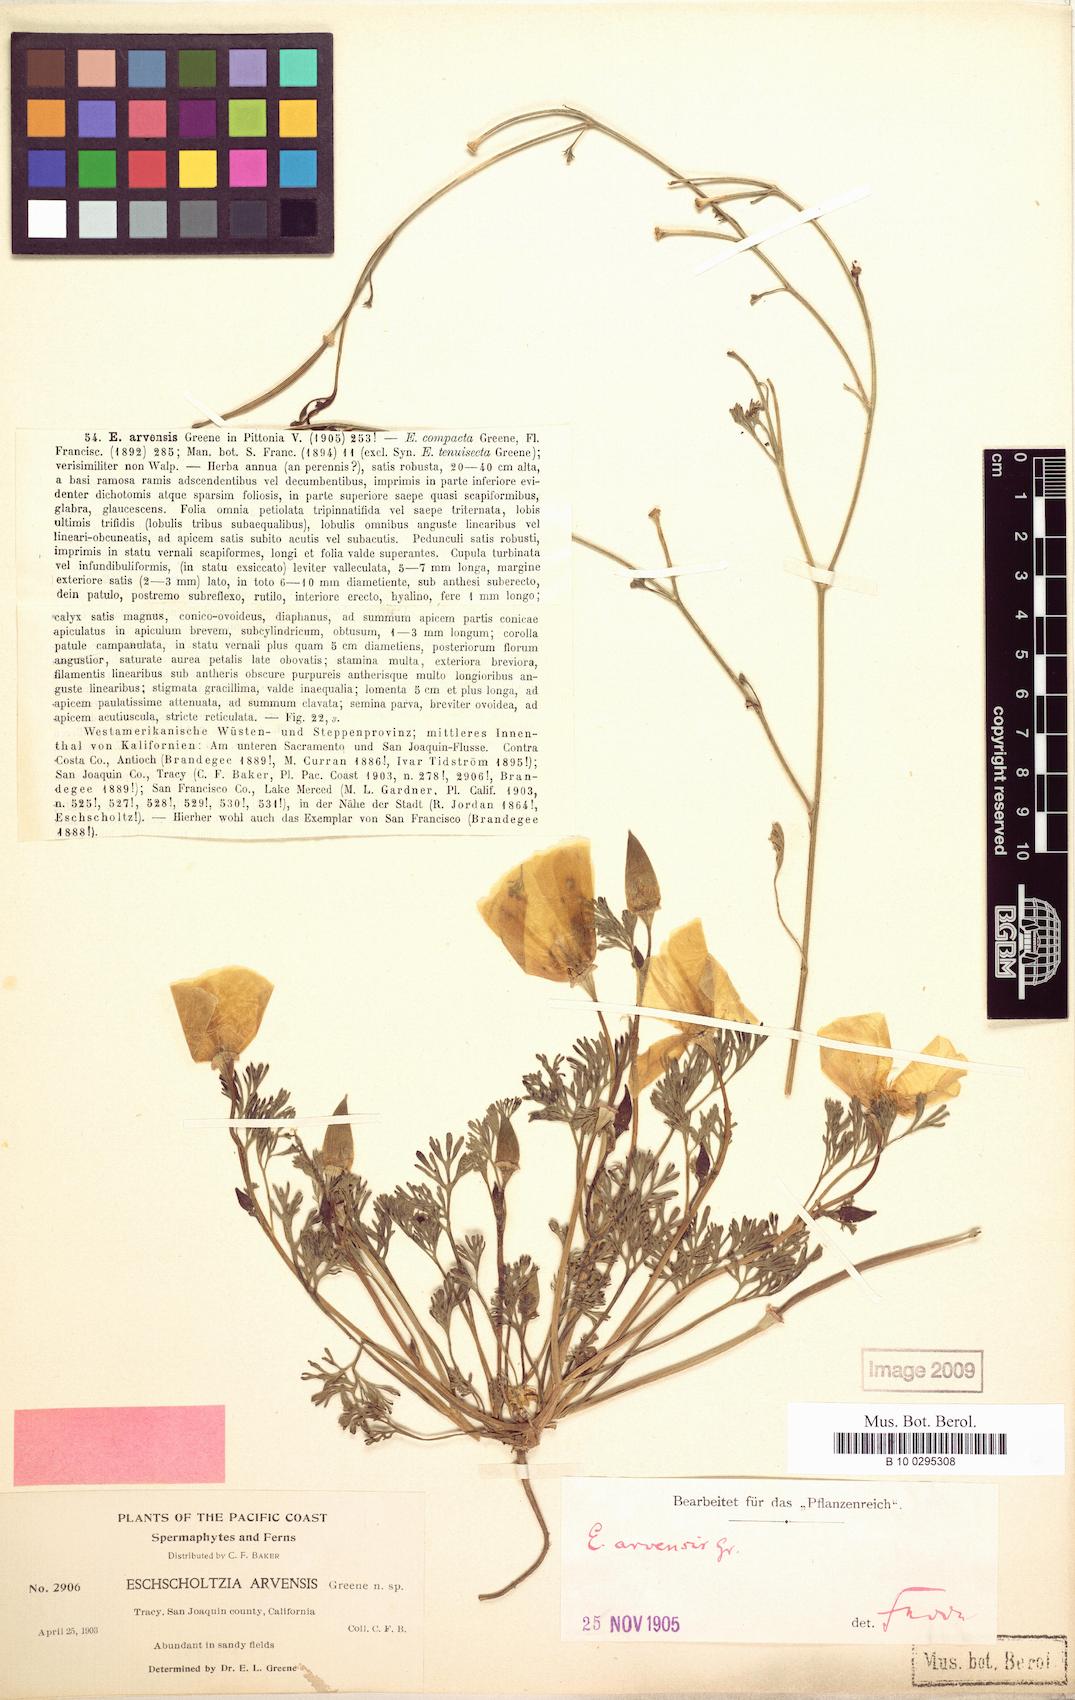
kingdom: Plantae
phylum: Tracheophyta
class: Magnoliopsida
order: Ranunculales
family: Papaveraceae
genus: Eschscholzia
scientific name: Eschscholzia californica
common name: California poppy
